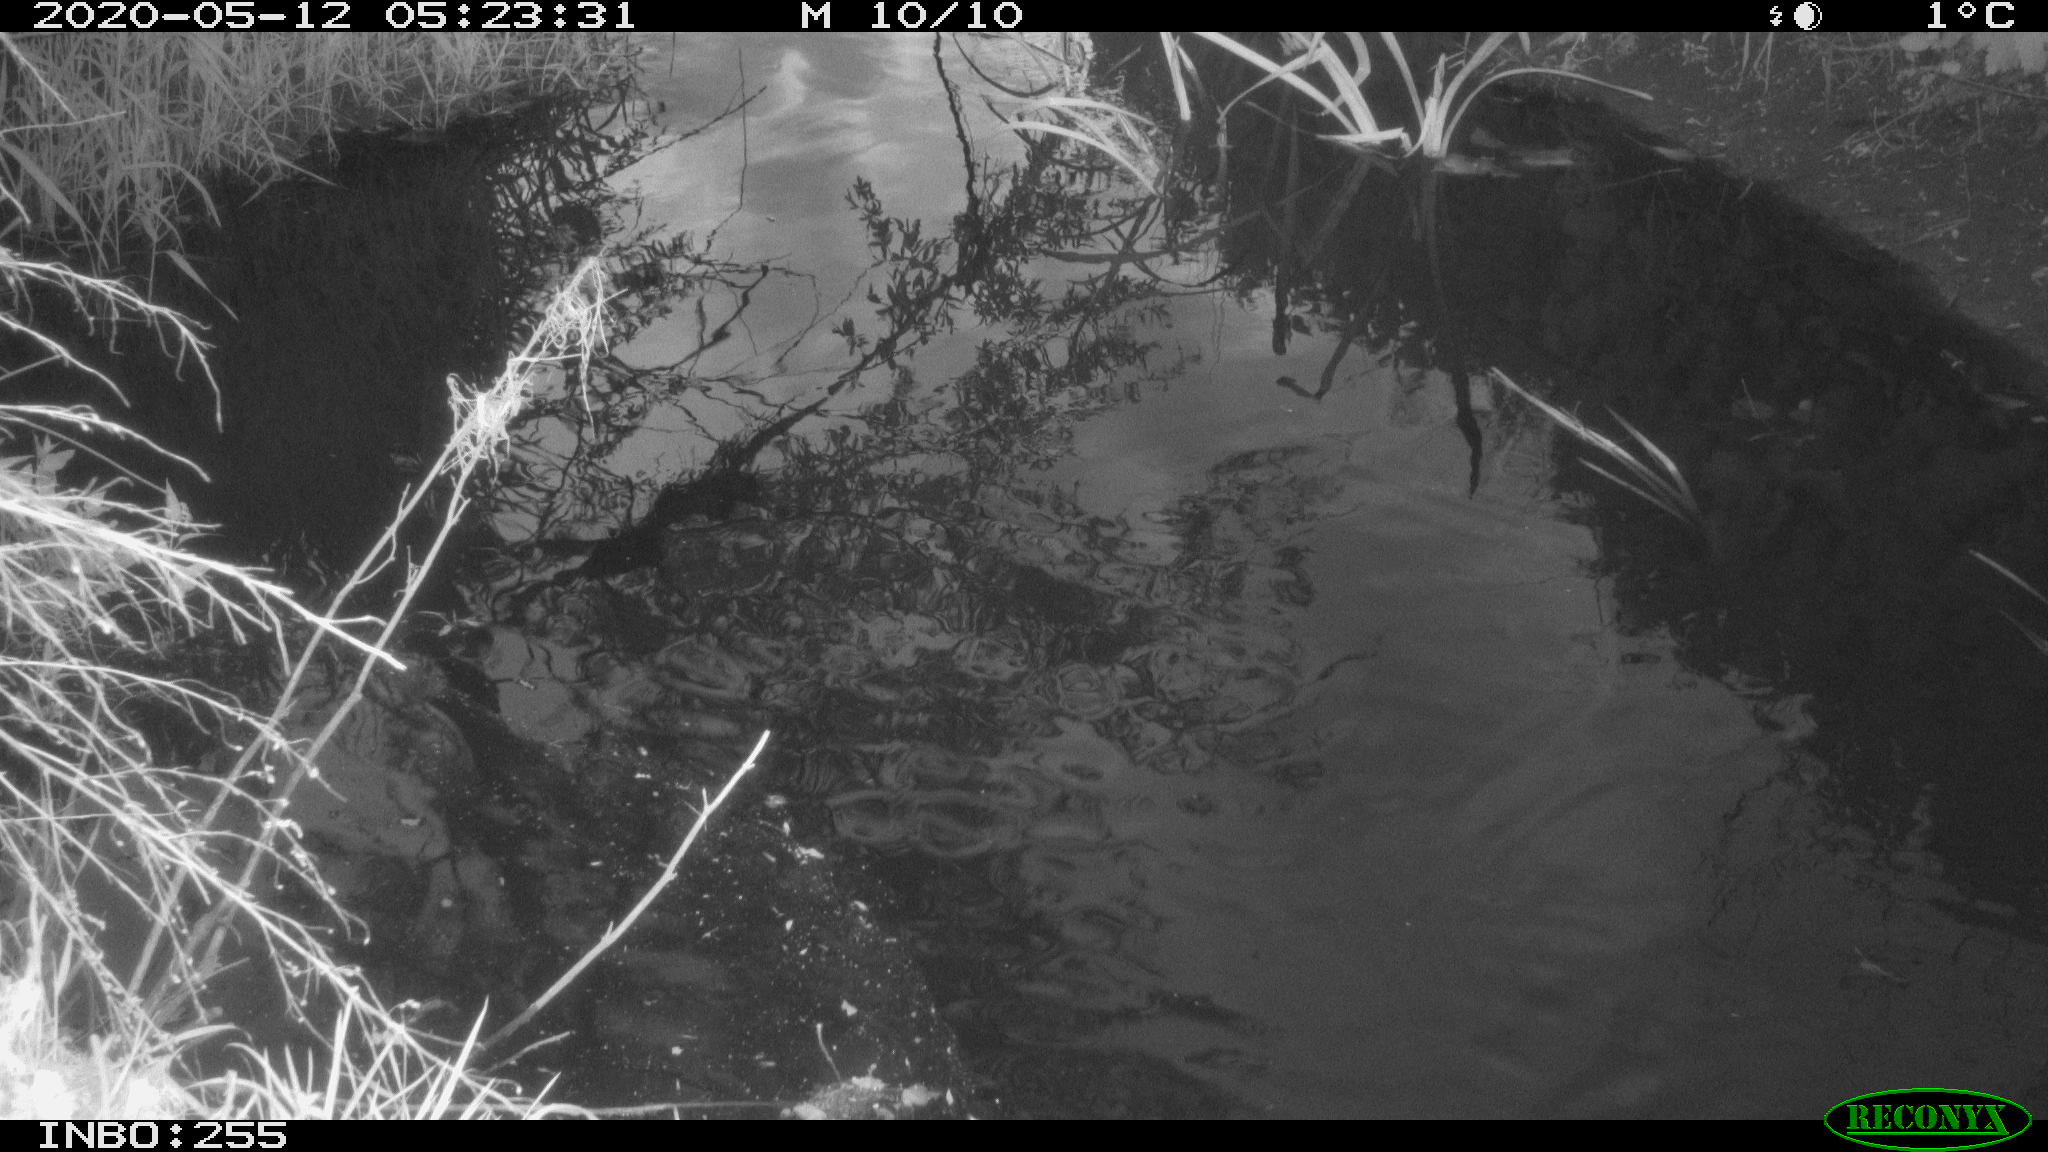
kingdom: Animalia
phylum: Chordata
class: Aves
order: Anseriformes
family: Anatidae
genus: Anas
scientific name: Anas platyrhynchos
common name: Mallard
